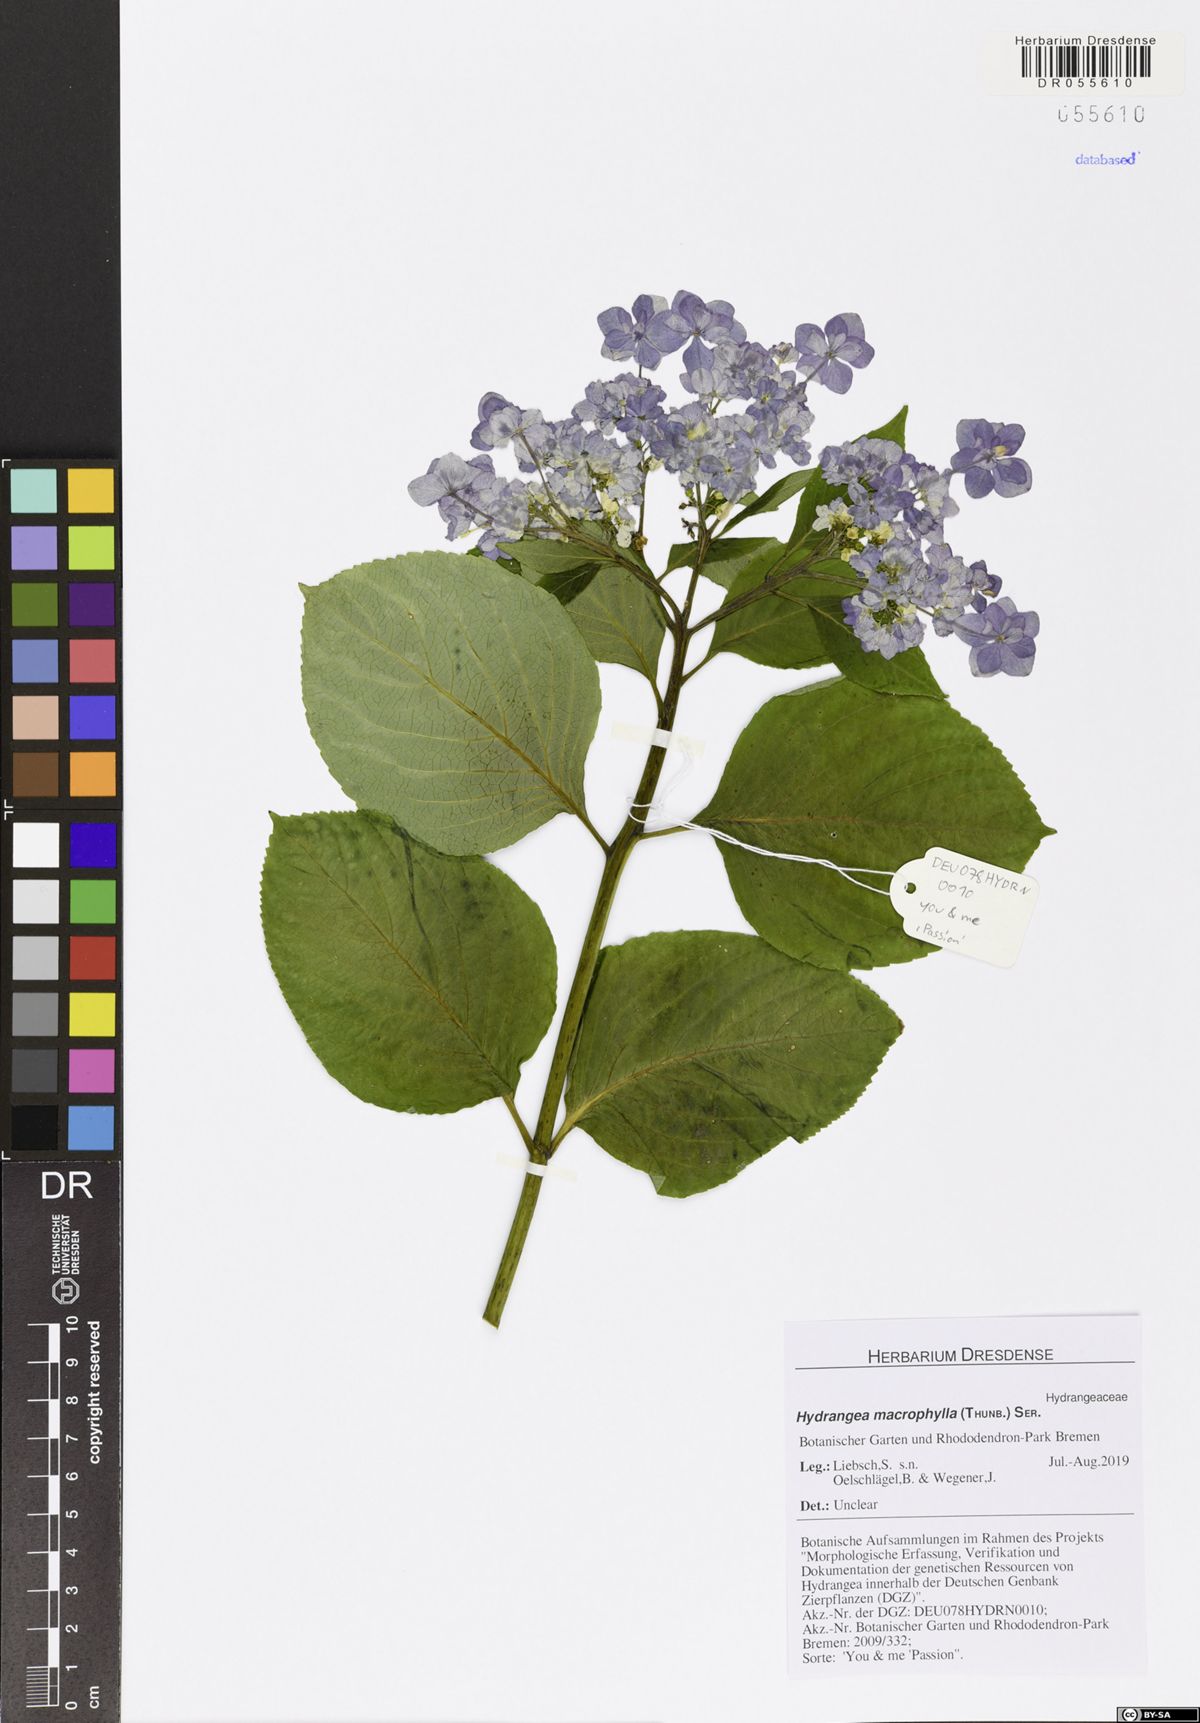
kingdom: Plantae
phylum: Tracheophyta
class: Magnoliopsida
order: Cornales
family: Hydrangeaceae
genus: Hydrangea
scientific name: Hydrangea macrophylla
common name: Hydrangea
